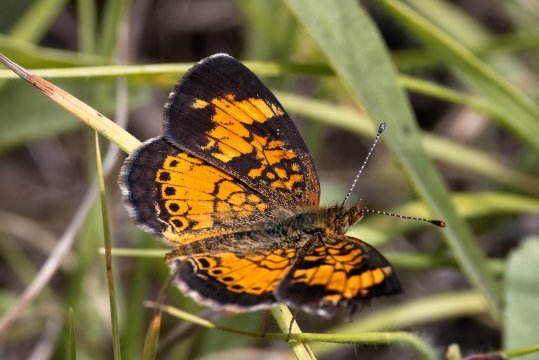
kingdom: Animalia
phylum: Arthropoda
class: Insecta
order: Lepidoptera
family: Nymphalidae
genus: Phyciodes
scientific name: Phyciodes tharos
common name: Pearl Crescent
